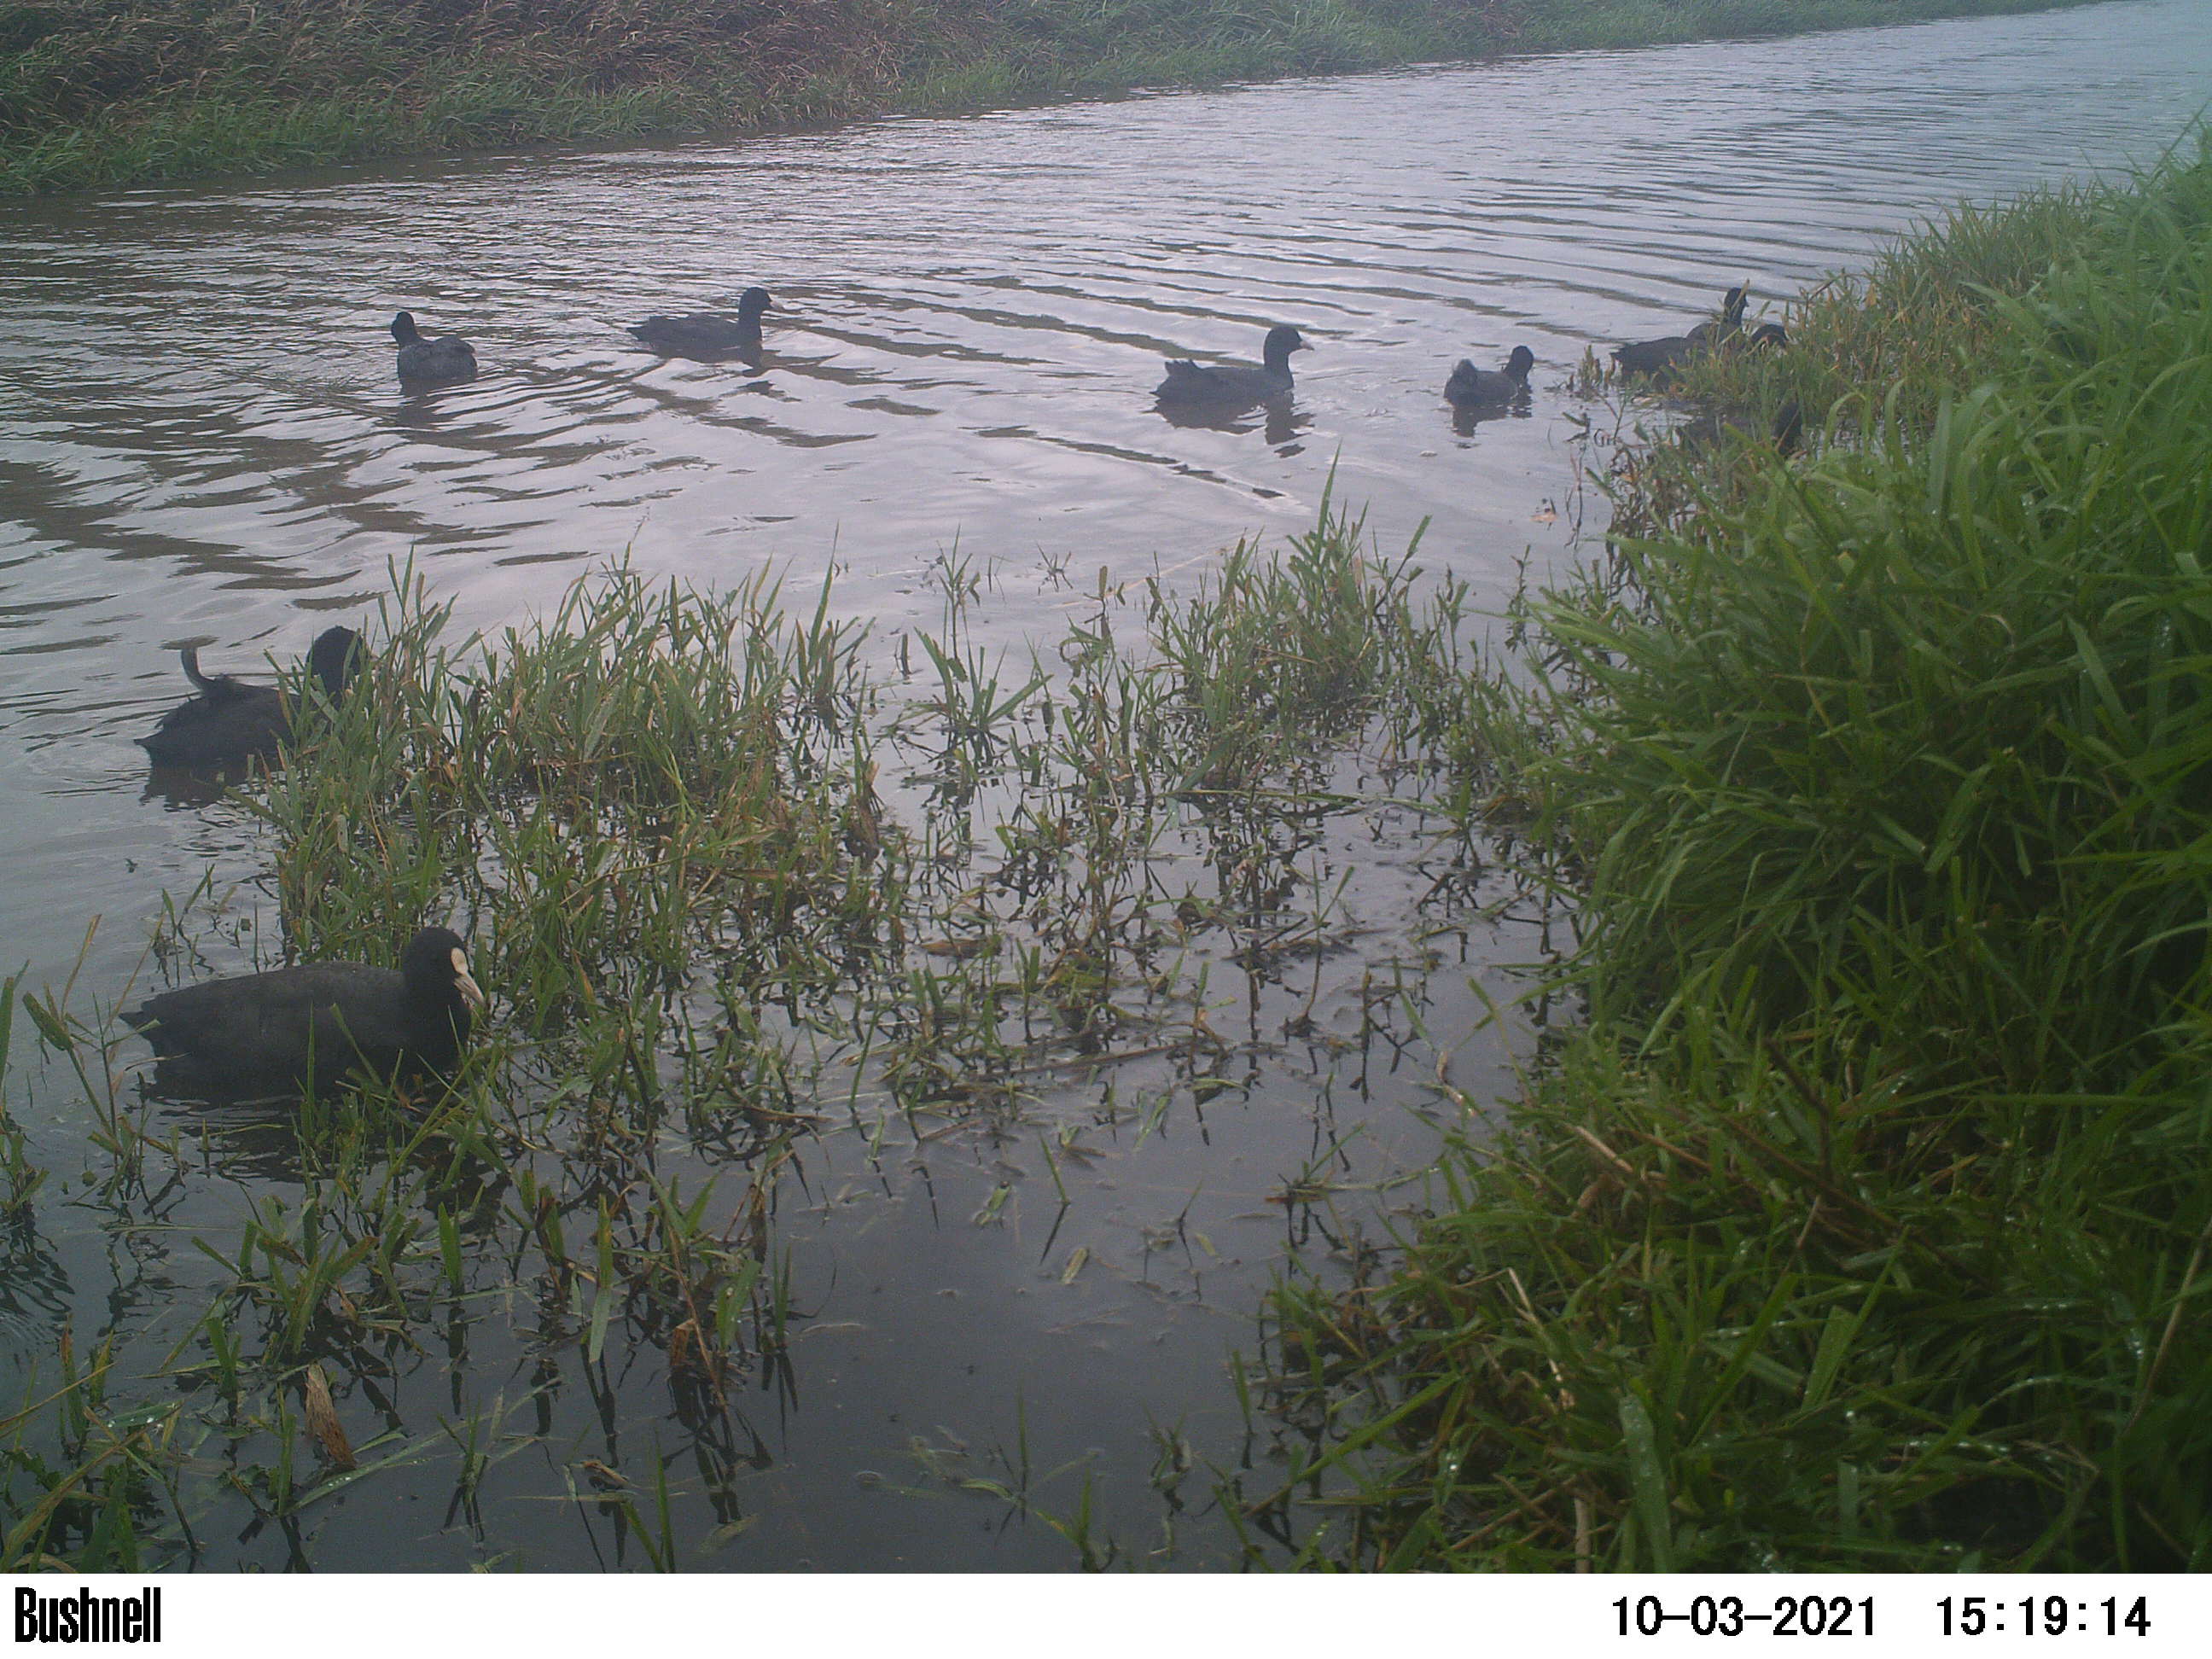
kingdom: Animalia
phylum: Chordata
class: Aves
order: Gruiformes
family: Rallidae
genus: Fulica
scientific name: Fulica atra
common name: Eurasian coot
